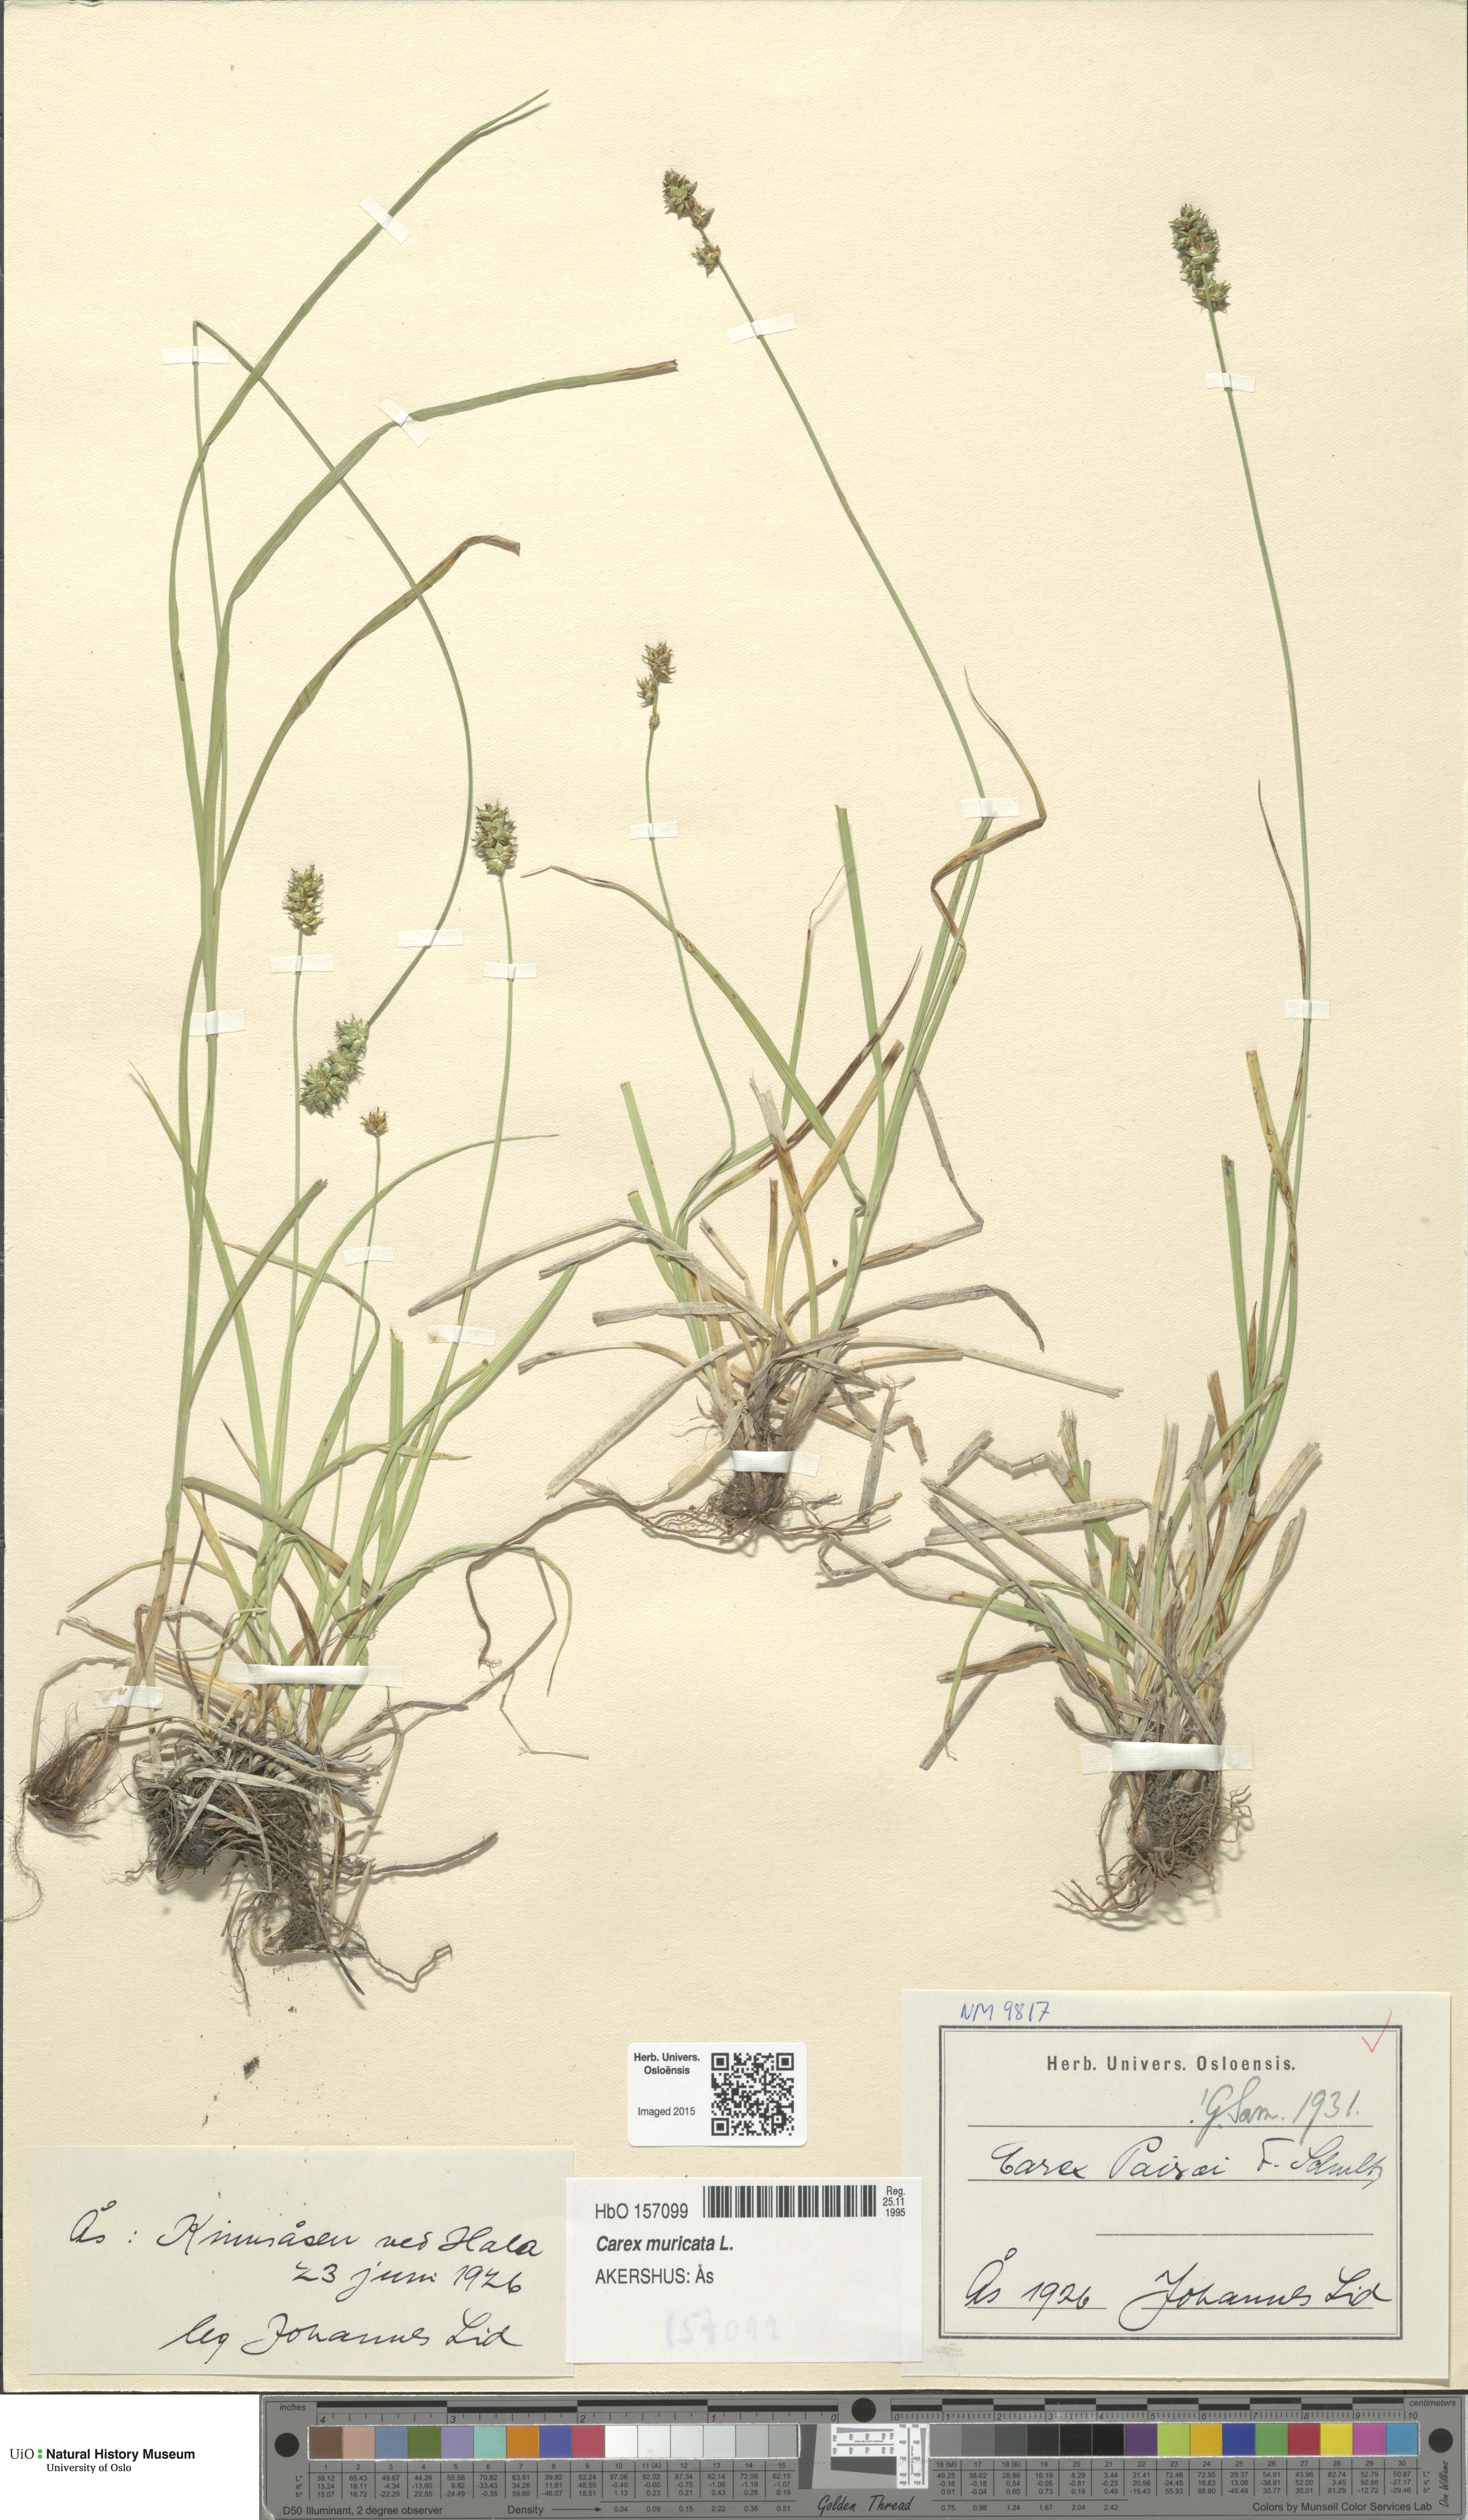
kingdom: Plantae
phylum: Tracheophyta
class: Liliopsida
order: Poales
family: Cyperaceae
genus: Carex
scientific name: Carex pairae
